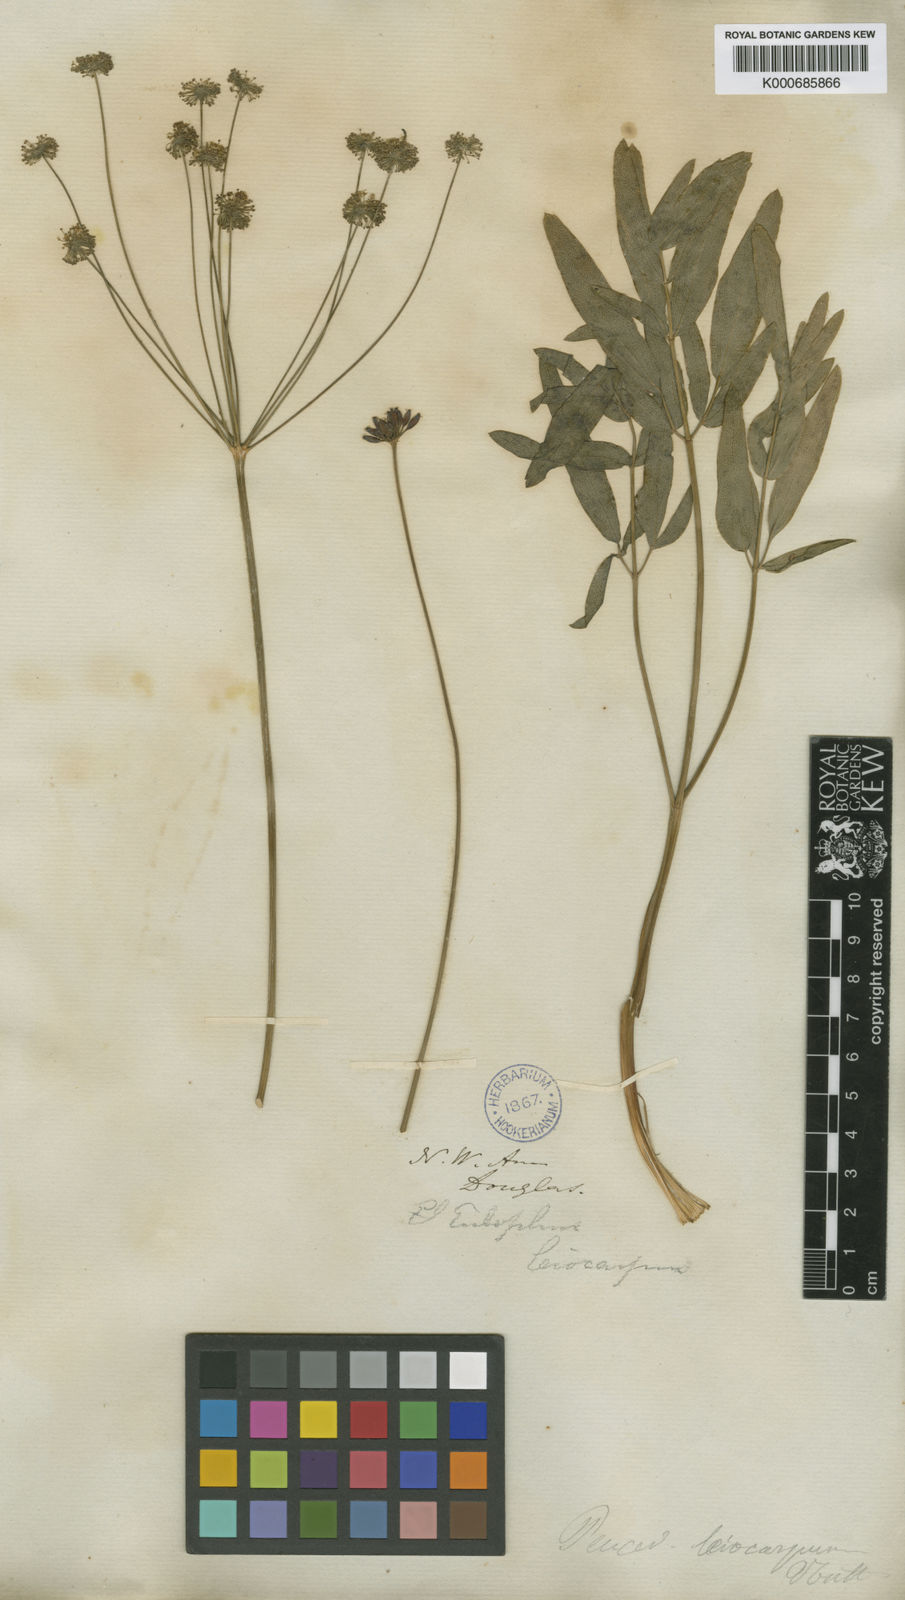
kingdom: Plantae
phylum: Tracheophyta
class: Magnoliopsida
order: Apiales
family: Apiaceae
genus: Lomatium
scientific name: Lomatium nudicaule
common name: Pestle lomatium
